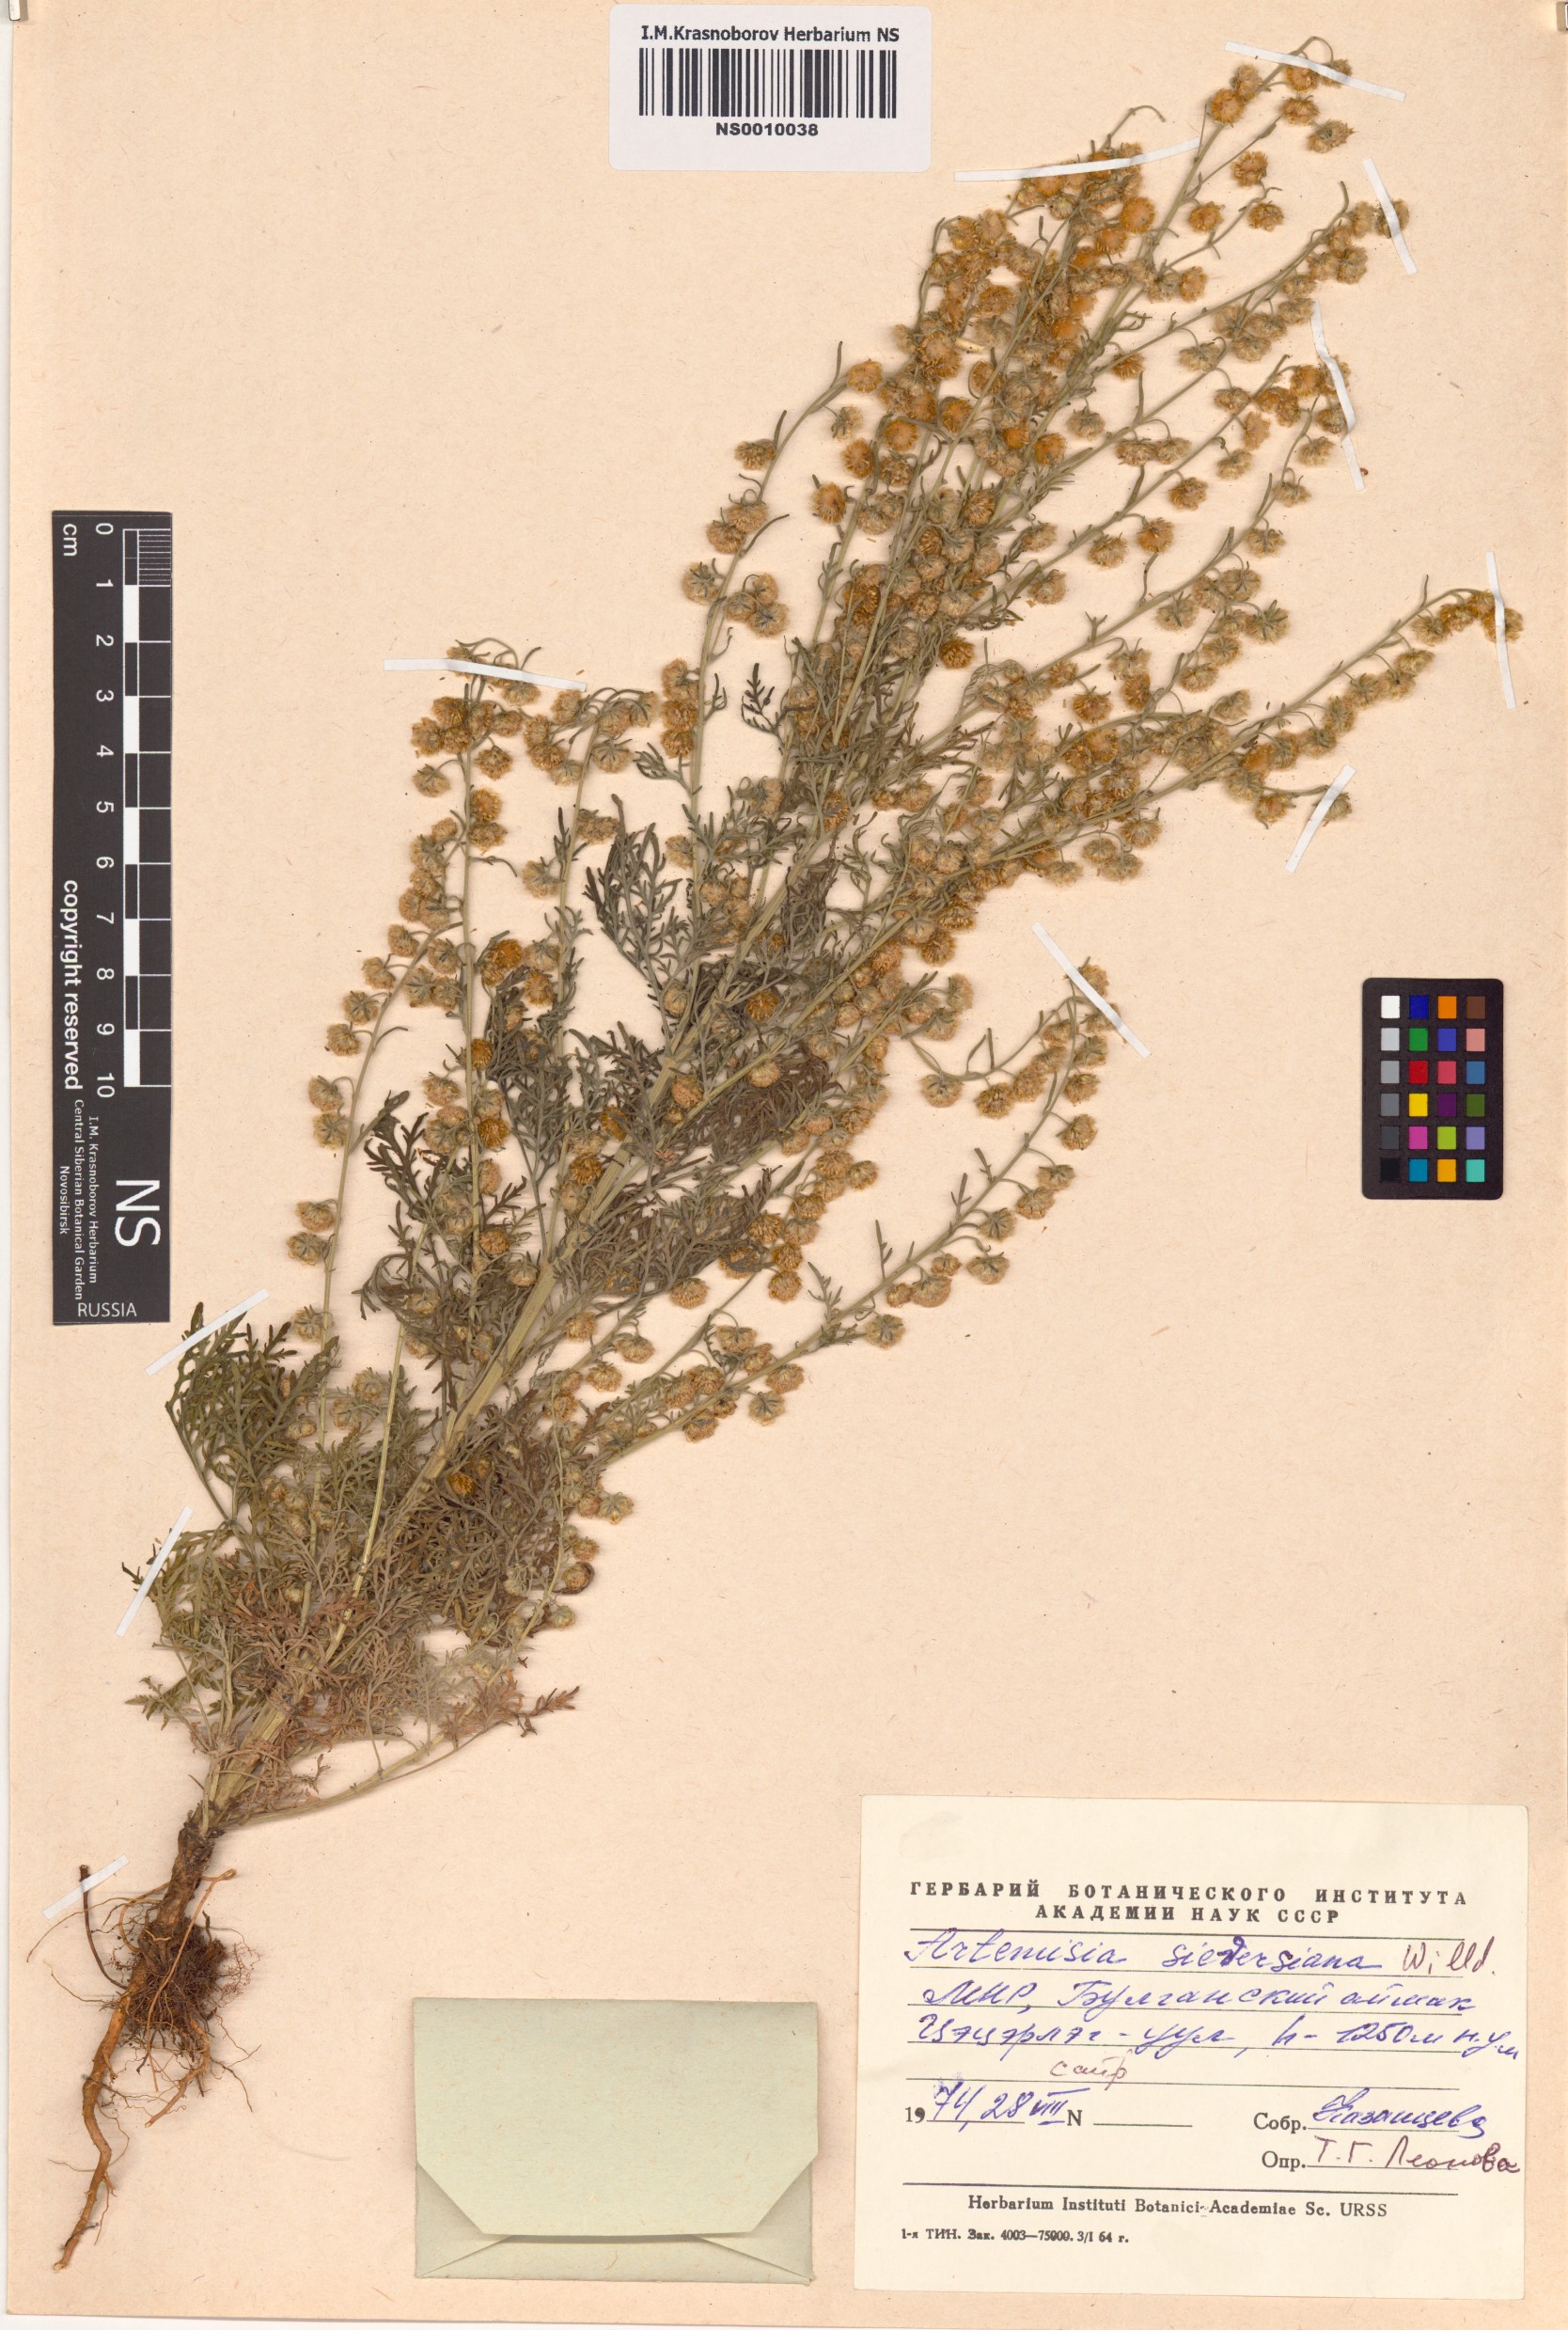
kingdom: Plantae
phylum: Tracheophyta
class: Magnoliopsida
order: Asterales
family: Asteraceae
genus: Artemisia
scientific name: Artemisia sieversiana
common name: Sieversian wormwood
